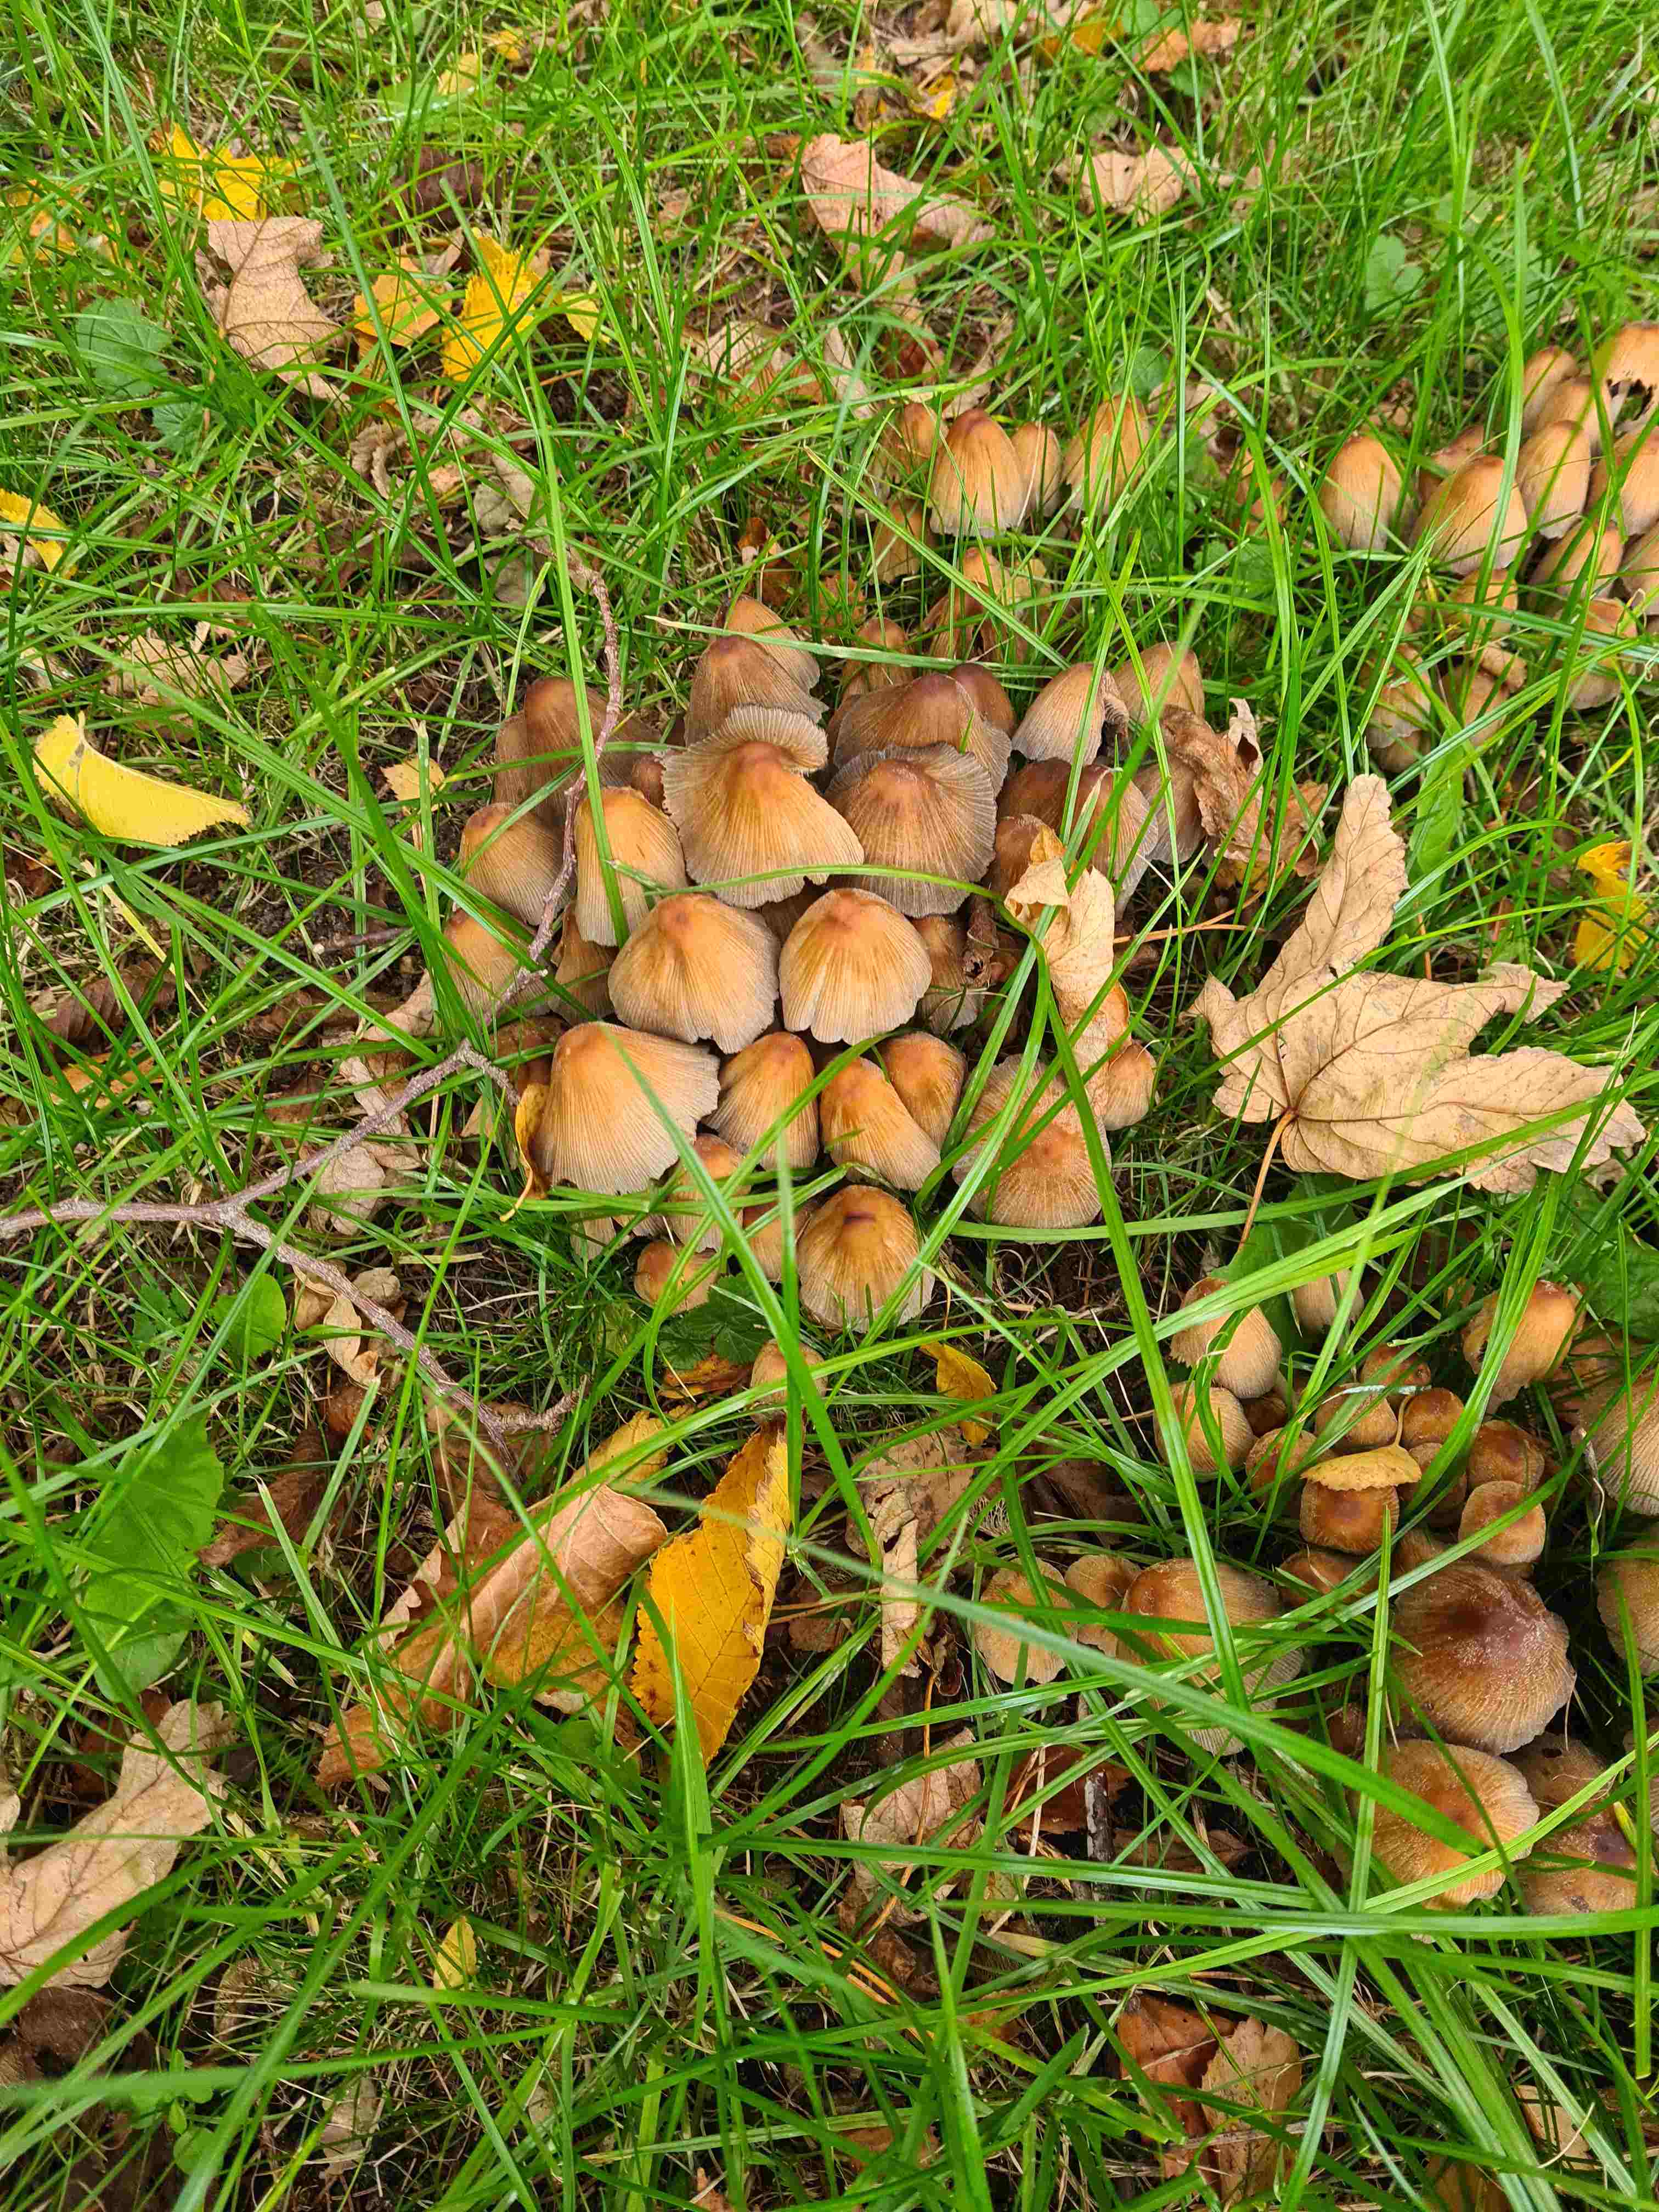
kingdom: Fungi
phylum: Basidiomycota
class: Agaricomycetes
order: Agaricales
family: Psathyrellaceae
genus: Coprinellus
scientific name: Coprinellus micaceus
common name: glimmer-blækhat
